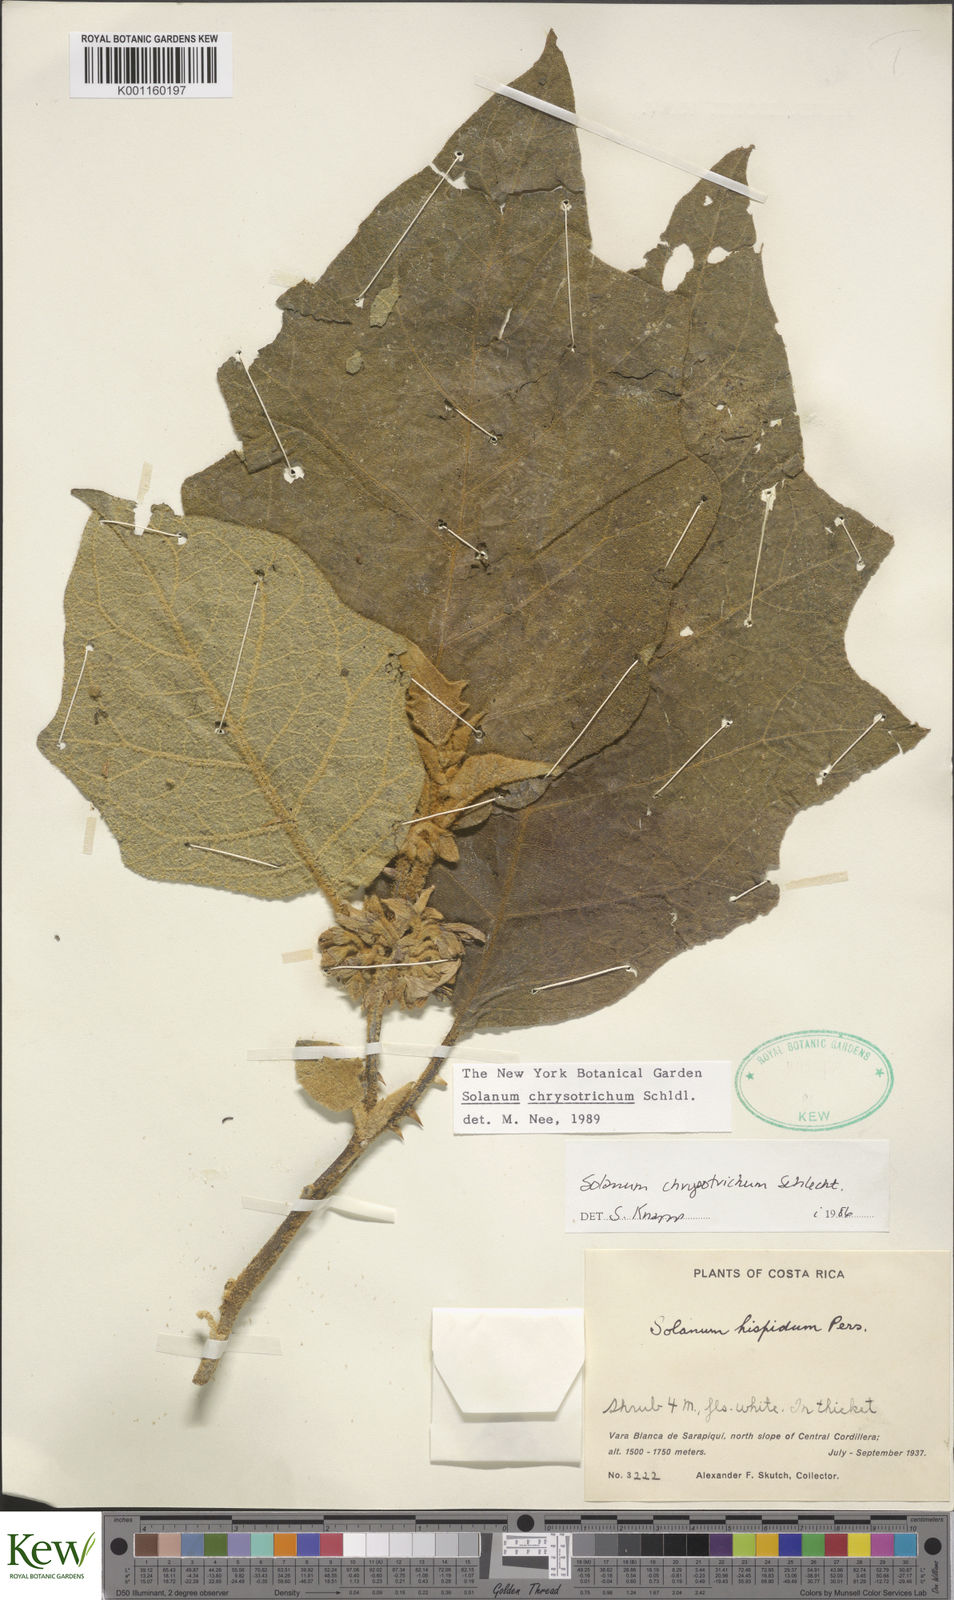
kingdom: Plantae
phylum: Tracheophyta
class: Magnoliopsida
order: Solanales
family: Solanaceae
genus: Solanum
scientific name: Solanum chrysotrichum
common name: Nightshade
